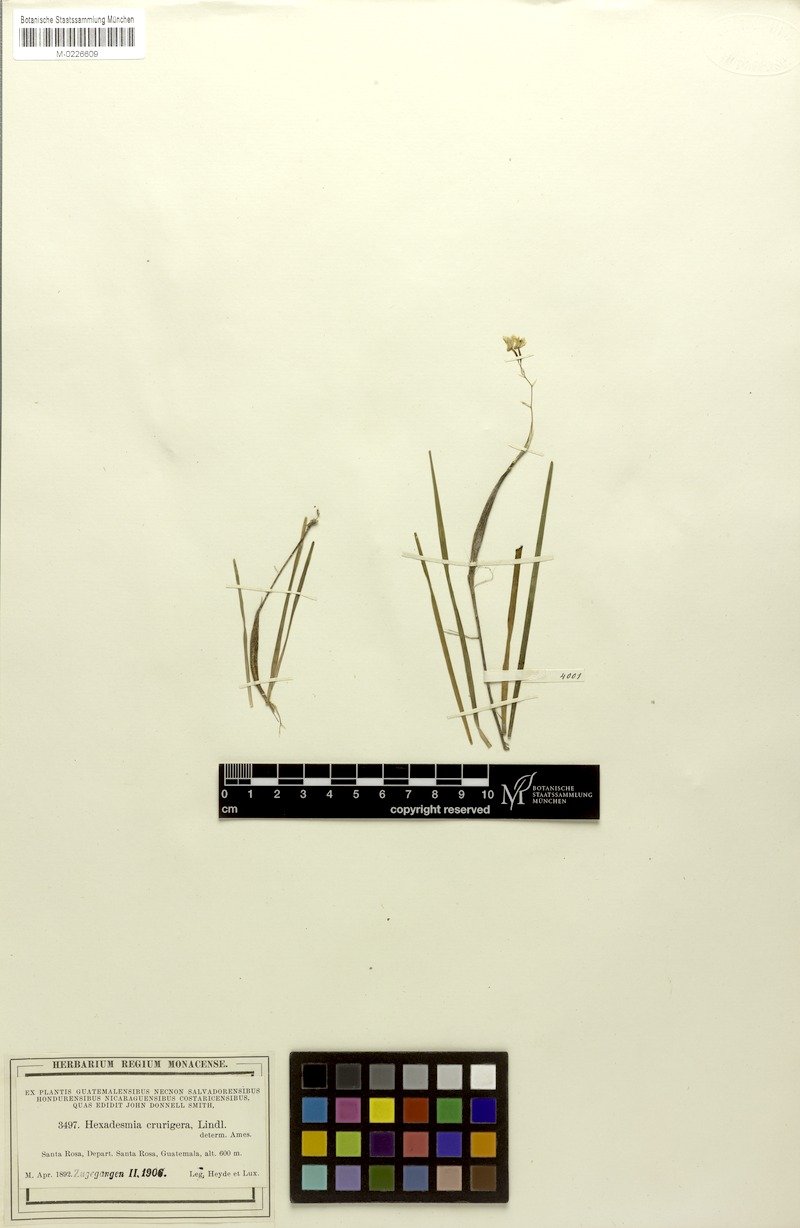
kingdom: Plantae
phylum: Tracheophyta
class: Liliopsida
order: Asparagales
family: Orchidaceae
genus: Scaphyglottis
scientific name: Scaphyglottis crurigera
